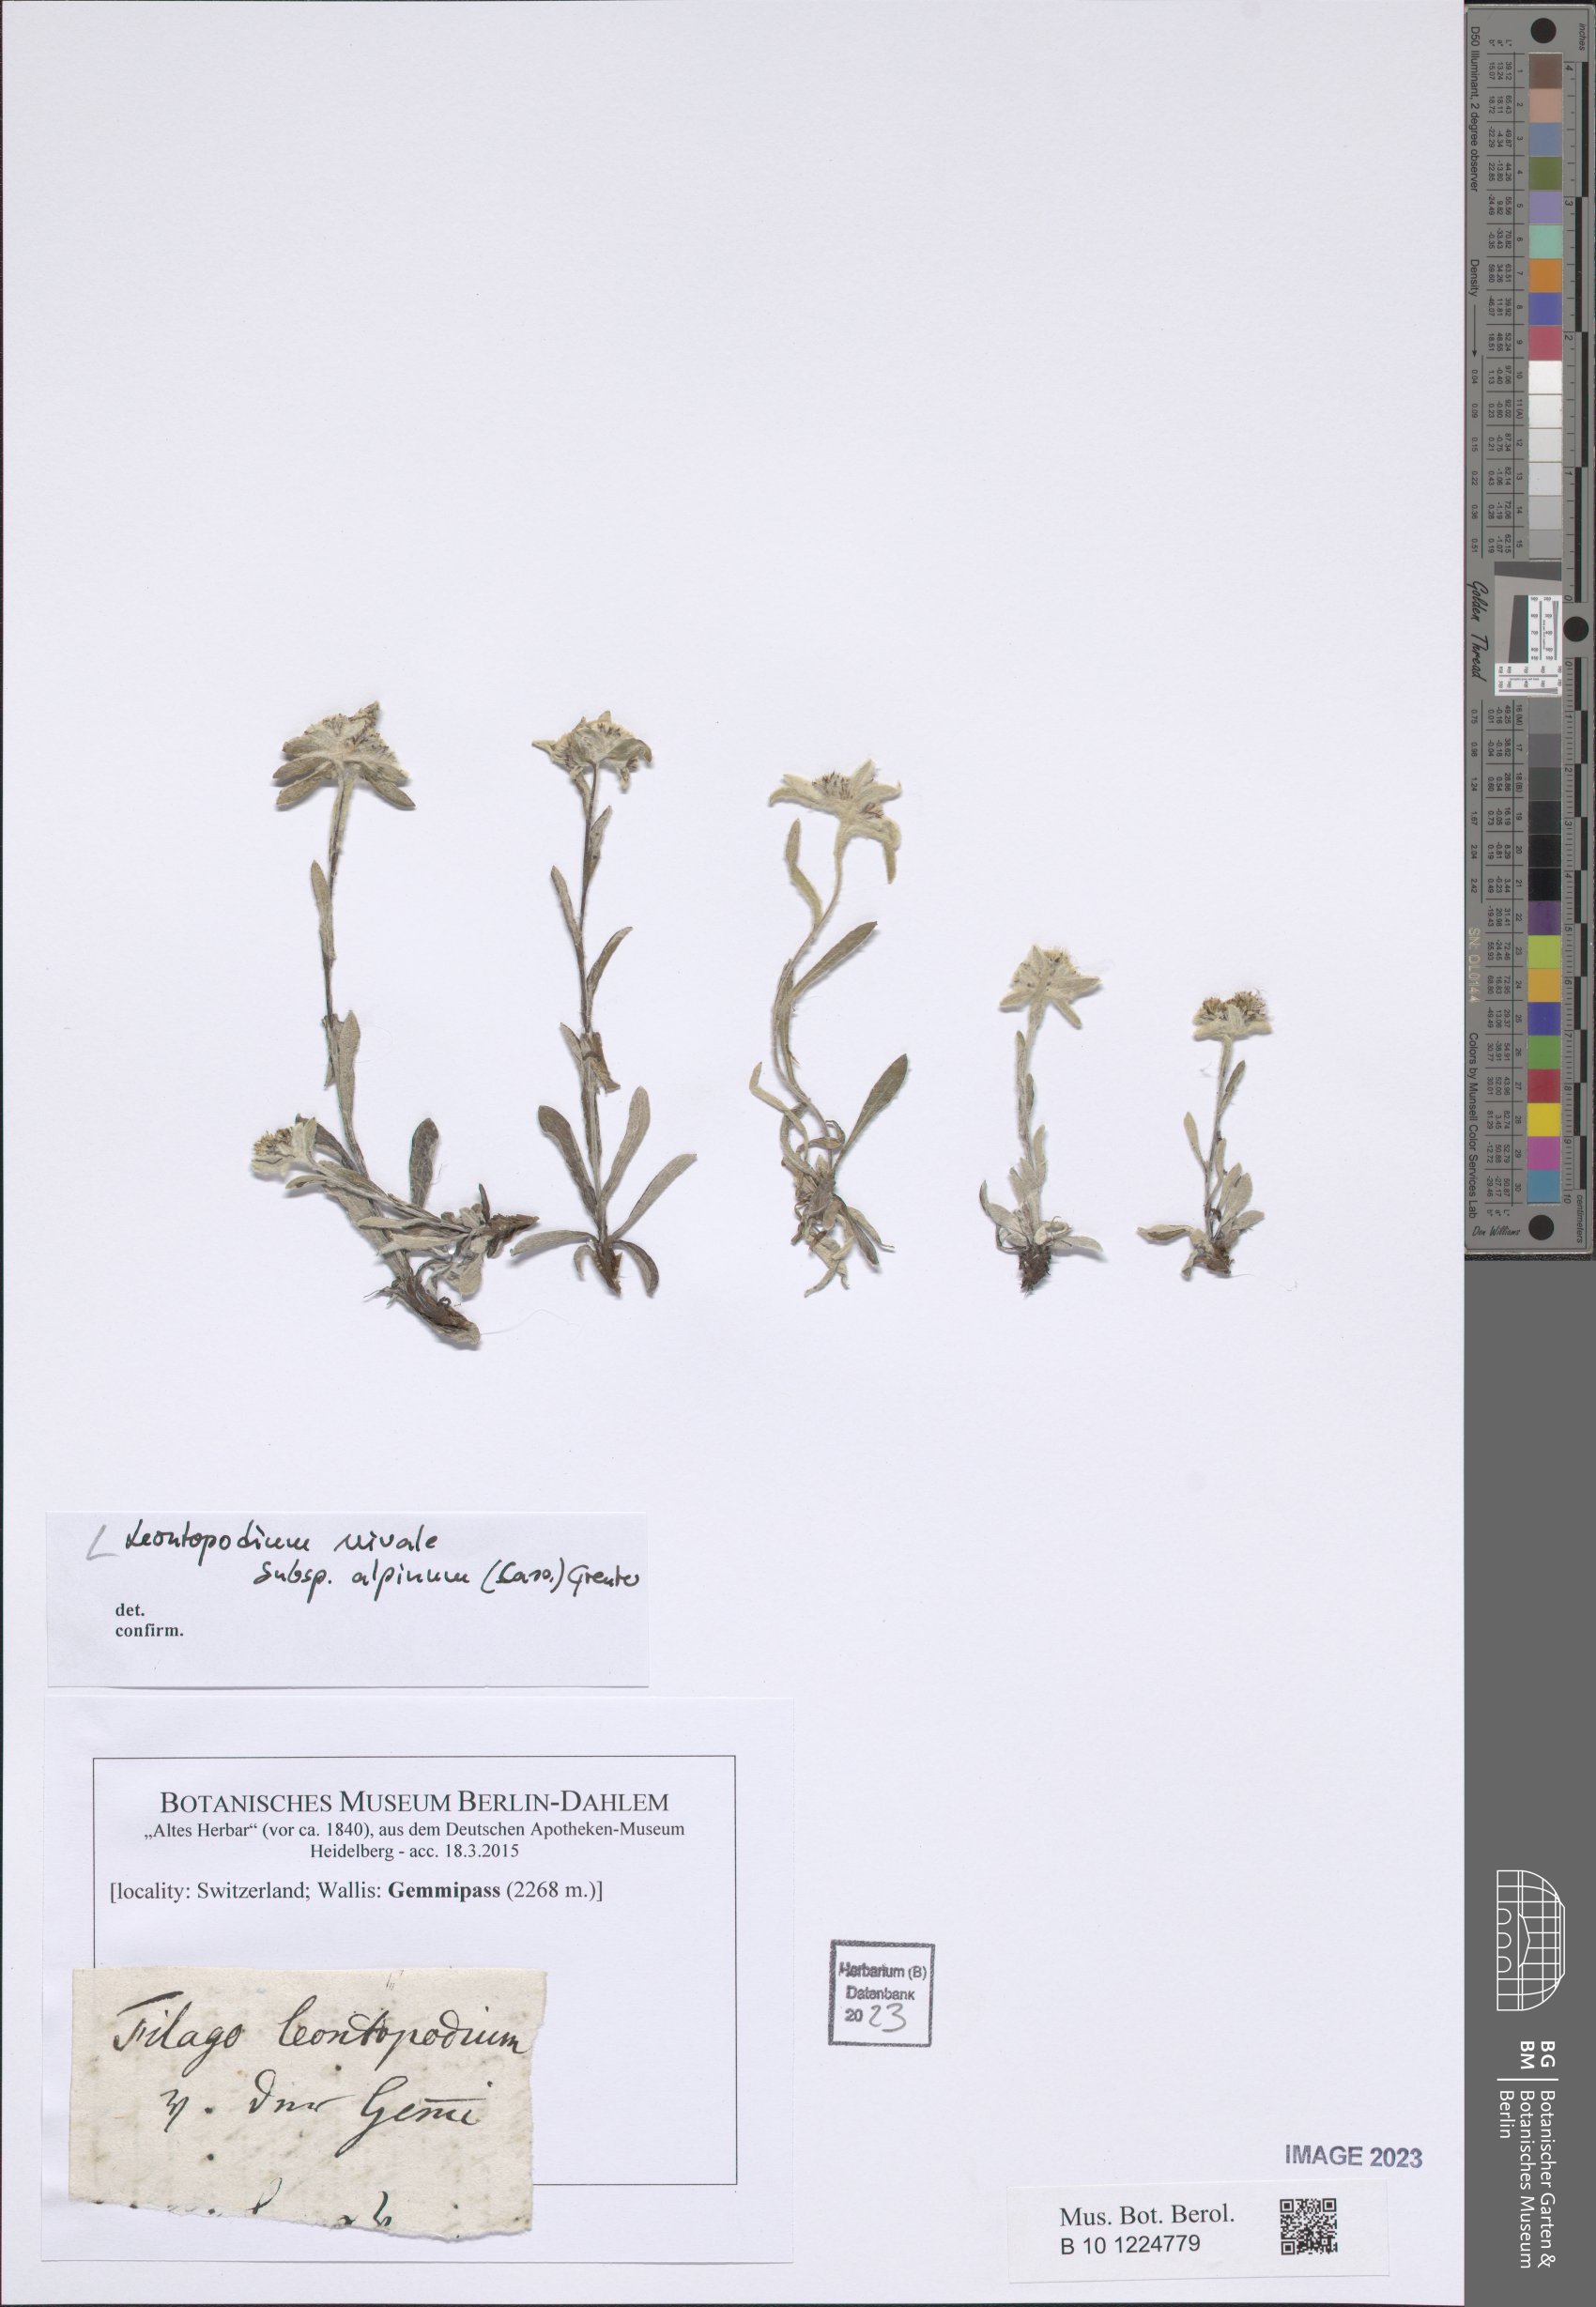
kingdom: Plantae
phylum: Tracheophyta
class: Magnoliopsida
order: Asterales
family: Asteraceae
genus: Leontopodium
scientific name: Leontopodium nivale
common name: Edelweiss
